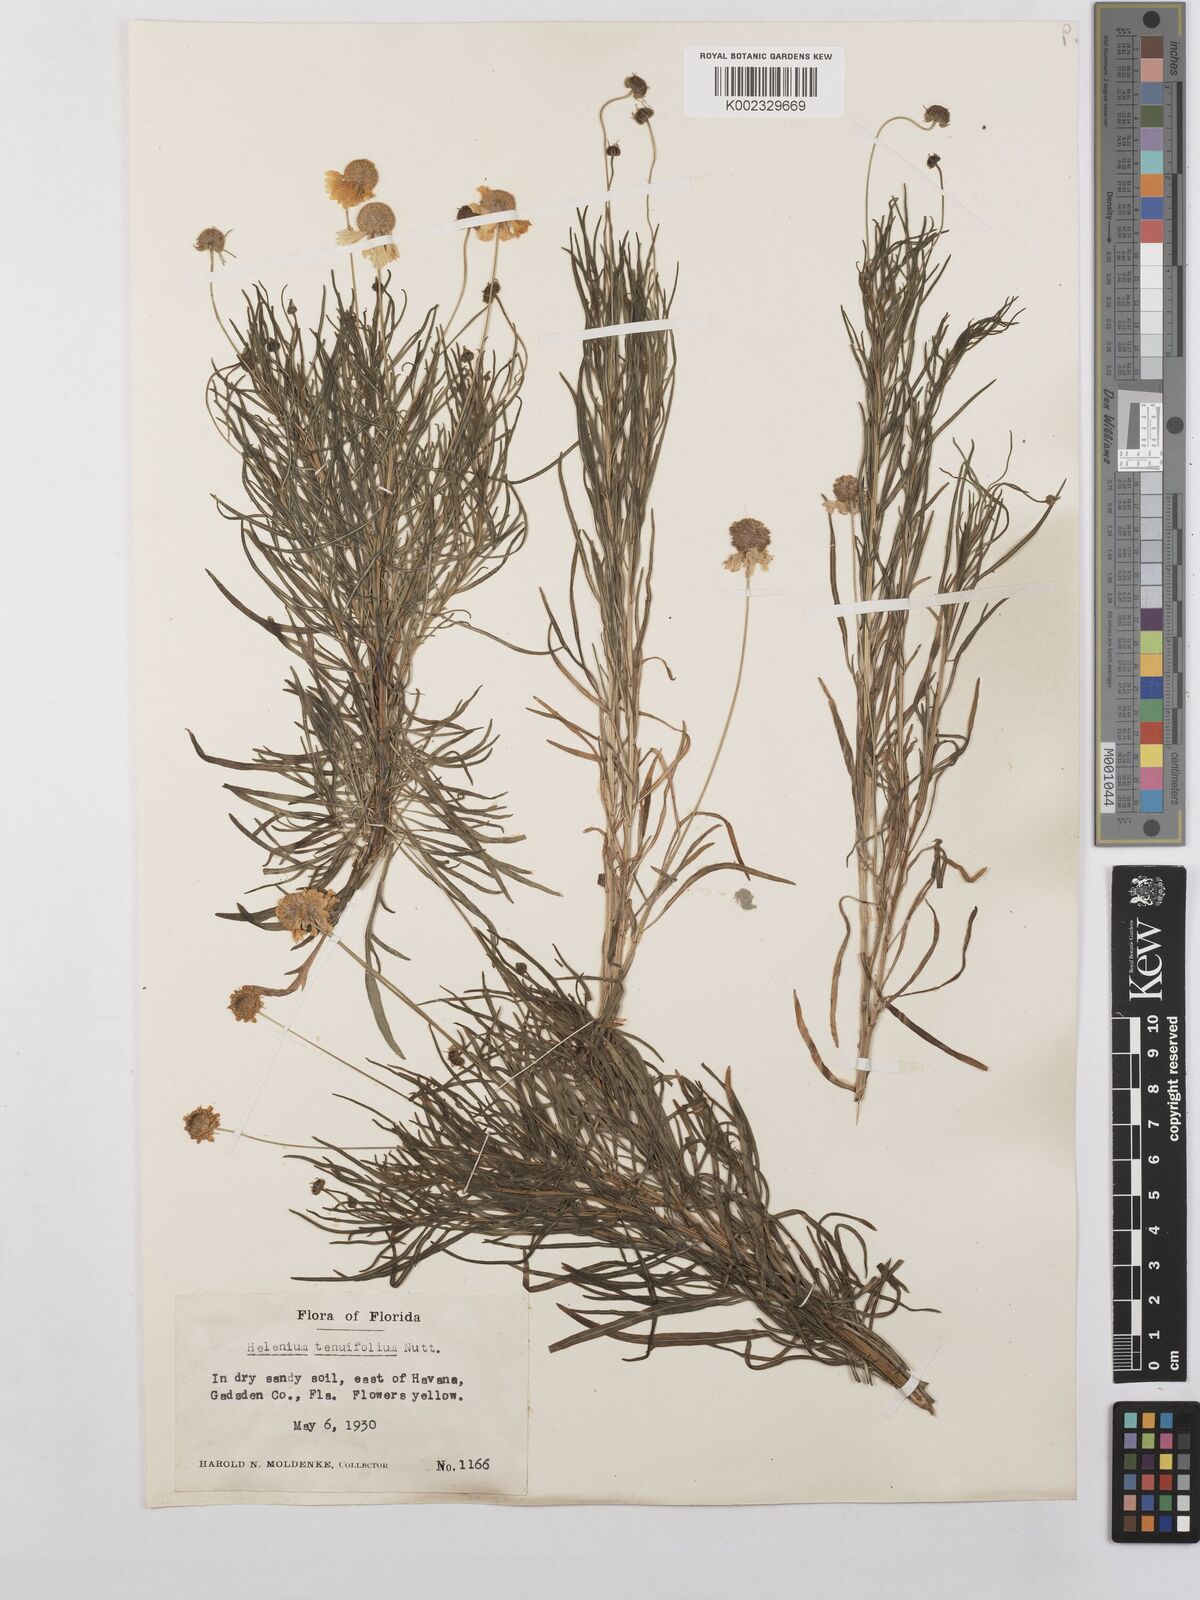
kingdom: Plantae
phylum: Tracheophyta
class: Magnoliopsida
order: Asterales
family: Asteraceae
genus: Helenium
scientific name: Helenium amarum
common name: Bitter sneezeweed
